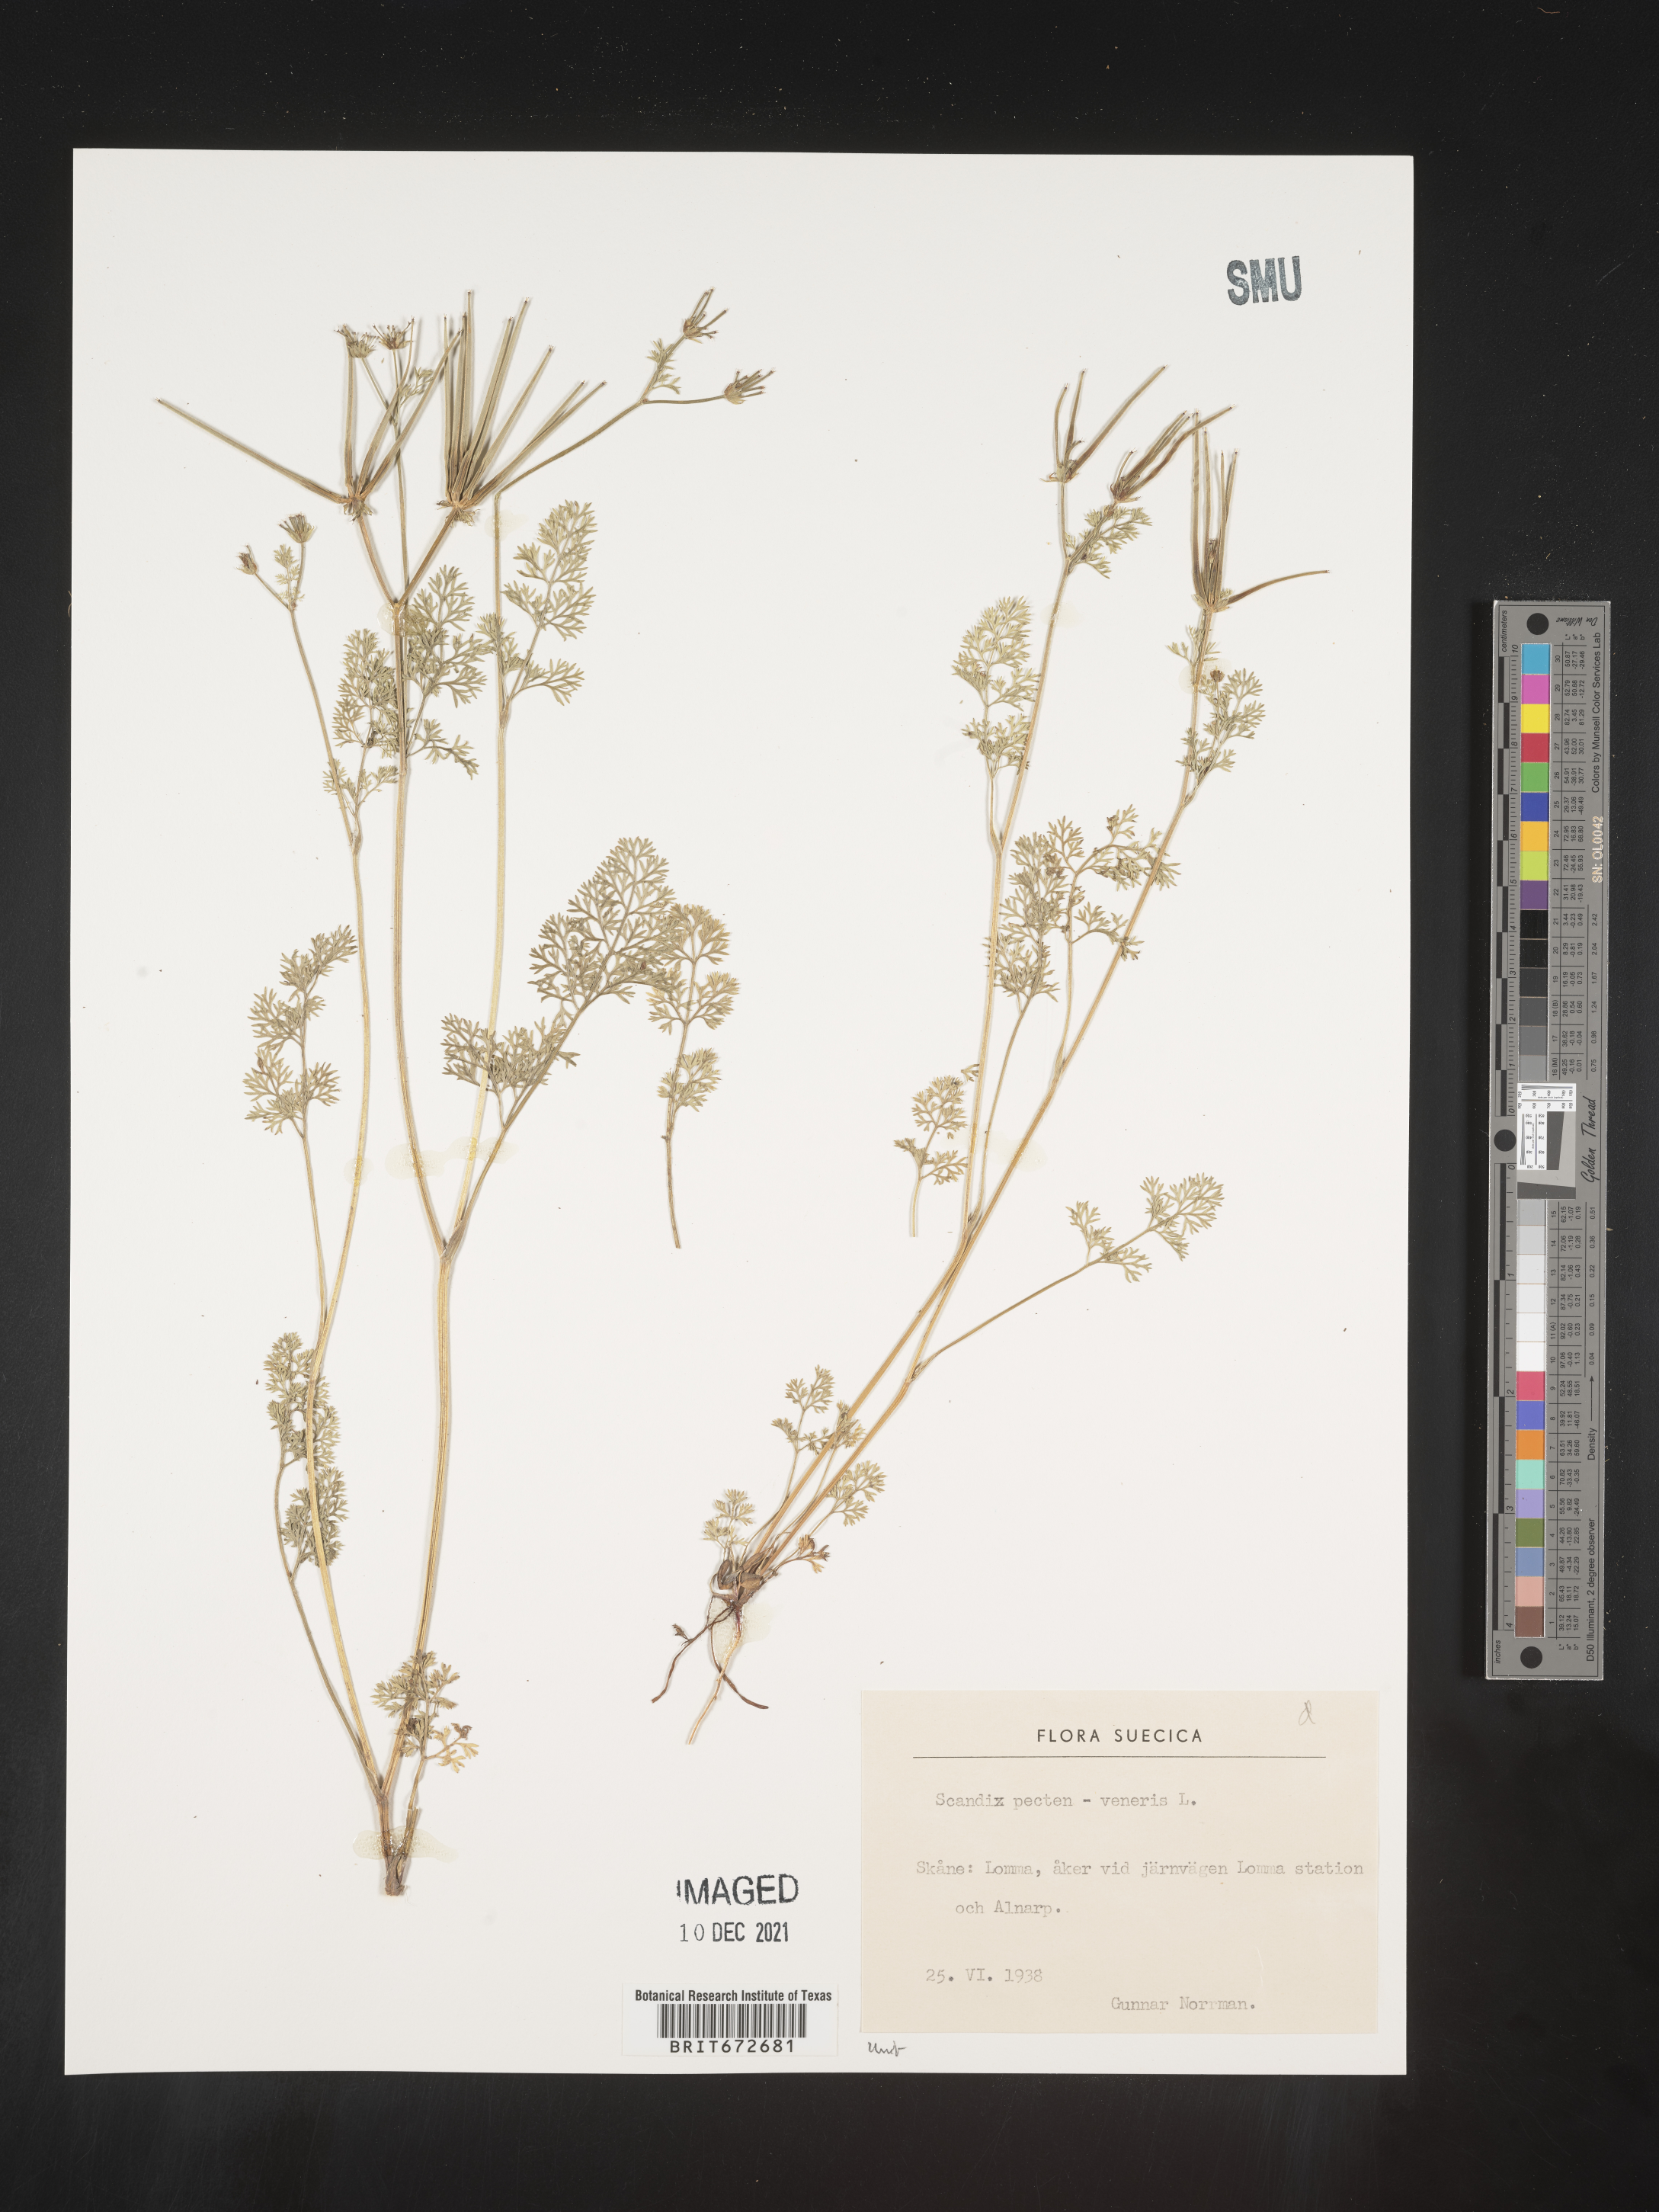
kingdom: Plantae
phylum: Tracheophyta
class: Magnoliopsida
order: Apiales
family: Apiaceae
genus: Scandix
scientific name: Scandix
